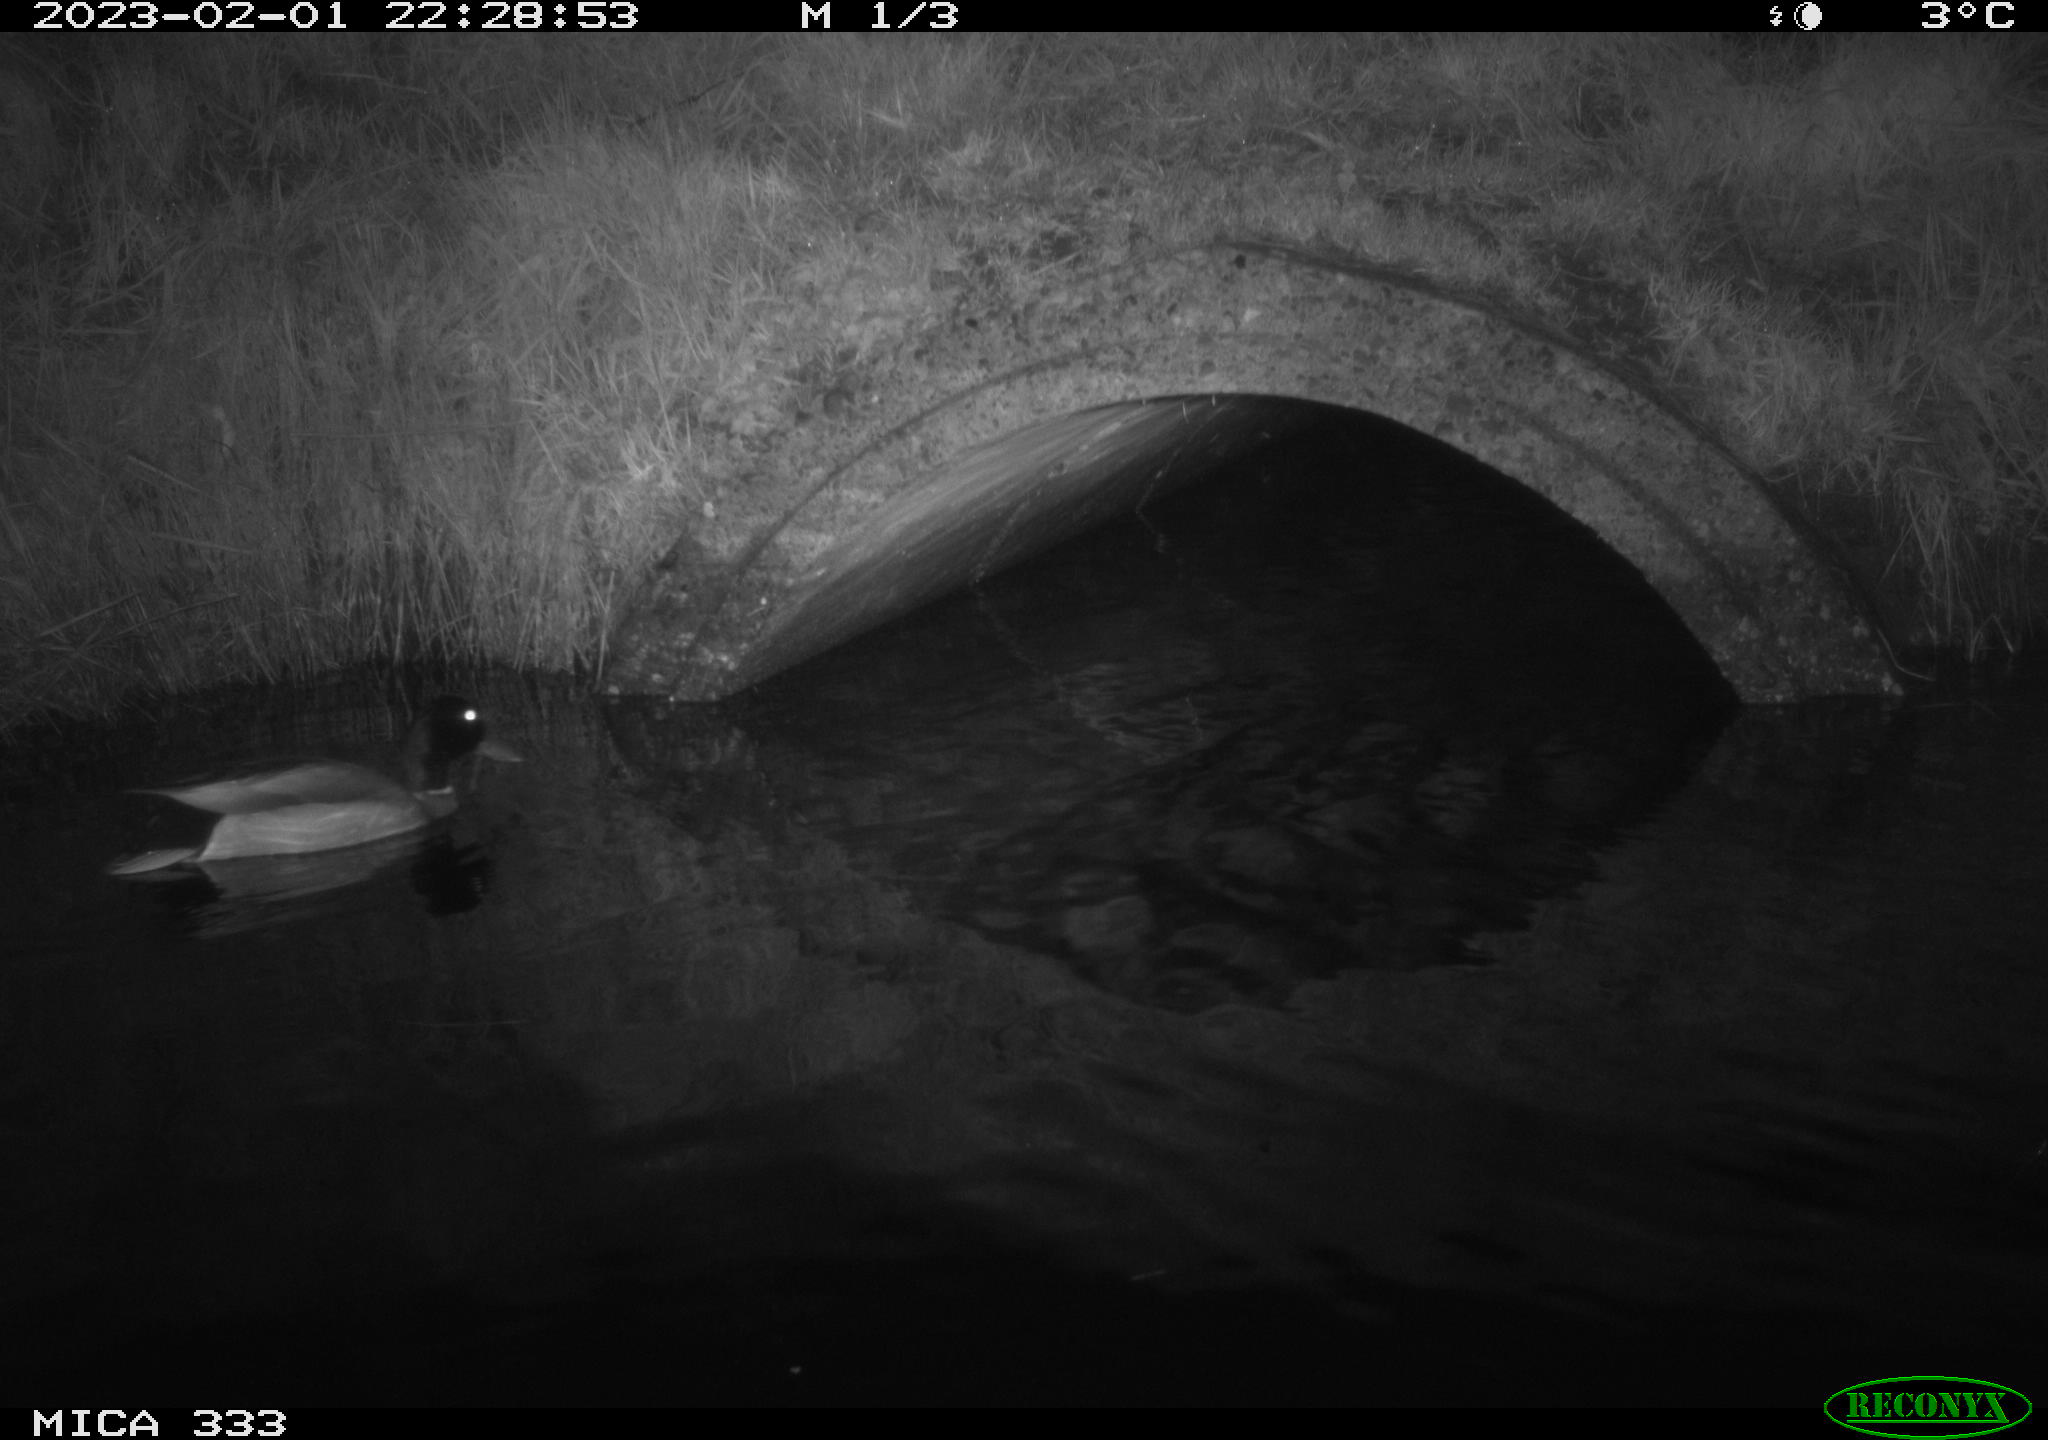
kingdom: Animalia
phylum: Chordata
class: Aves
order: Anseriformes
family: Anatidae
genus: Anas
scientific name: Anas
